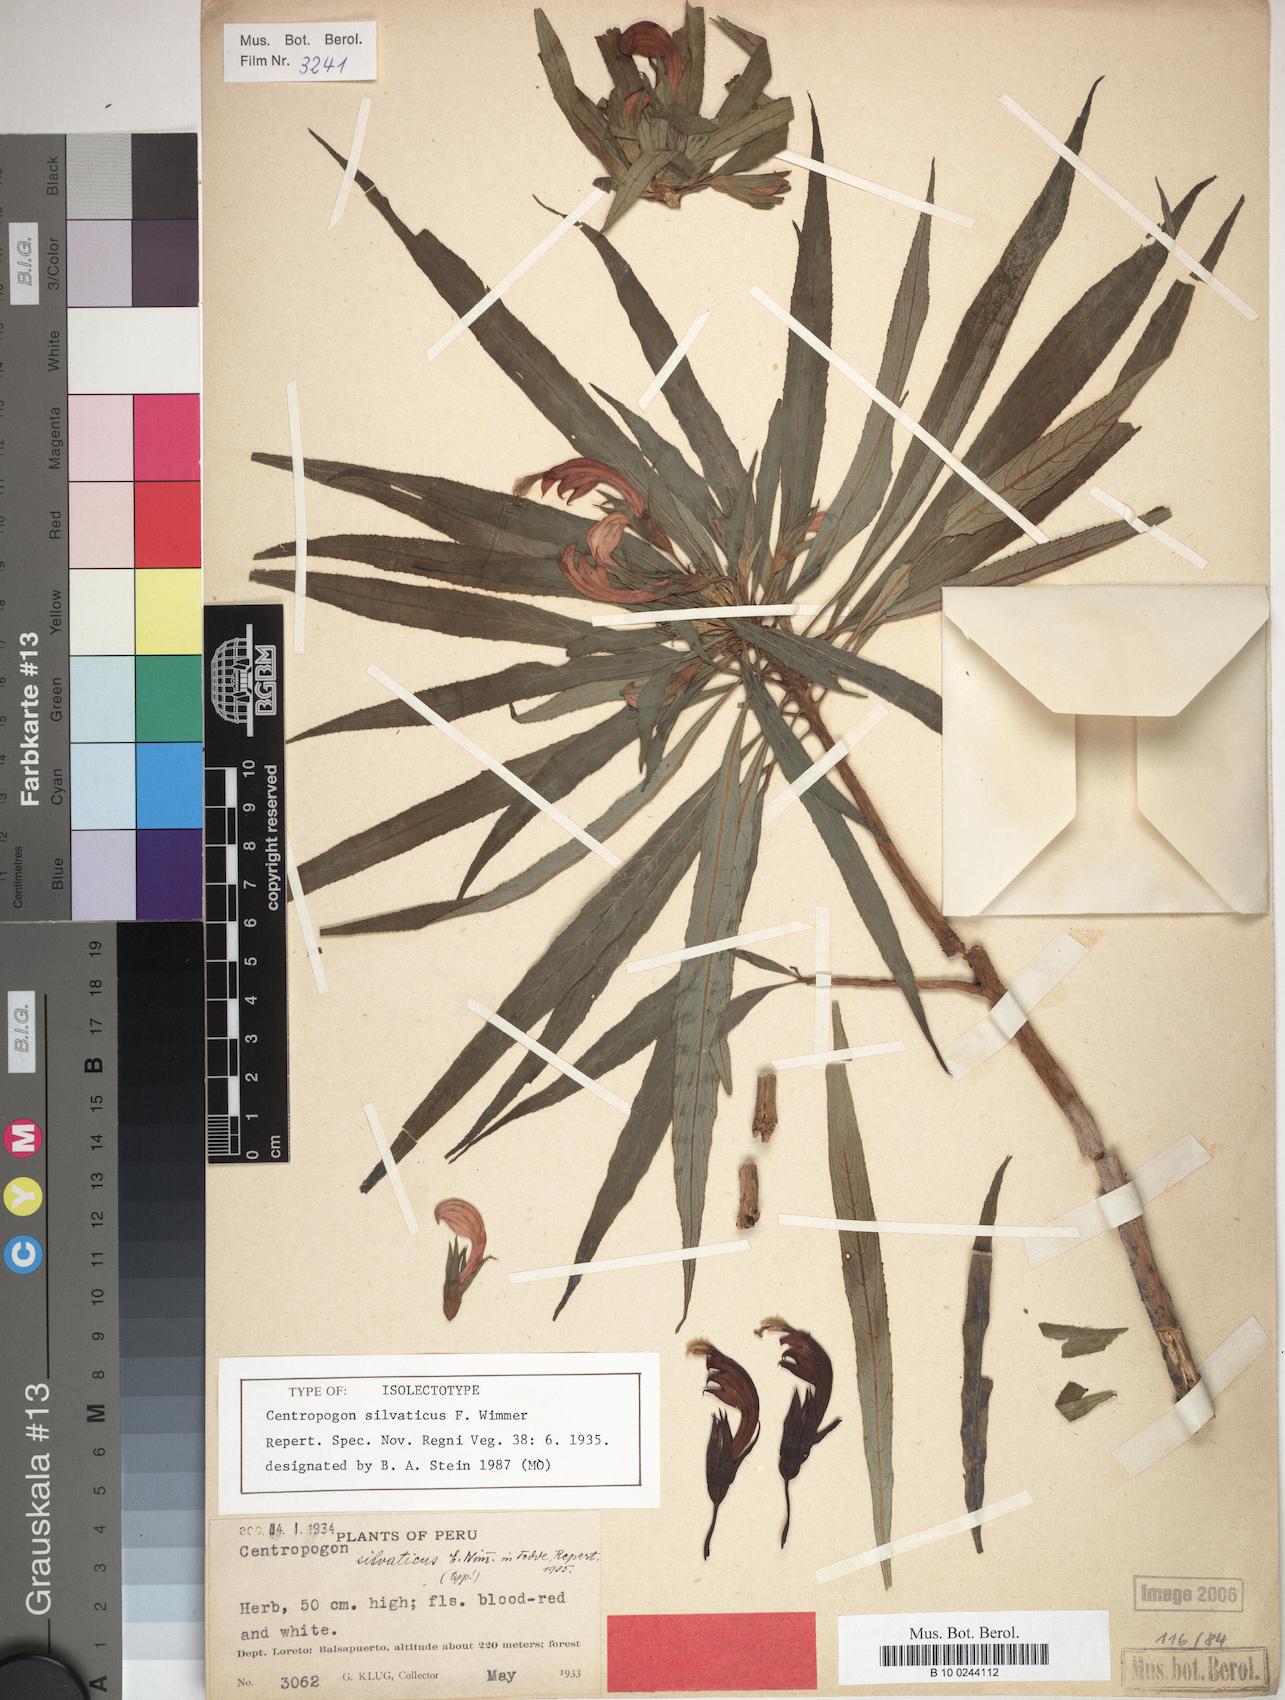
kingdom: Plantae
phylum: Tracheophyta
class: Magnoliopsida
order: Asterales
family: Campanulaceae
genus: Centropogon
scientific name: Centropogon silvaticus
